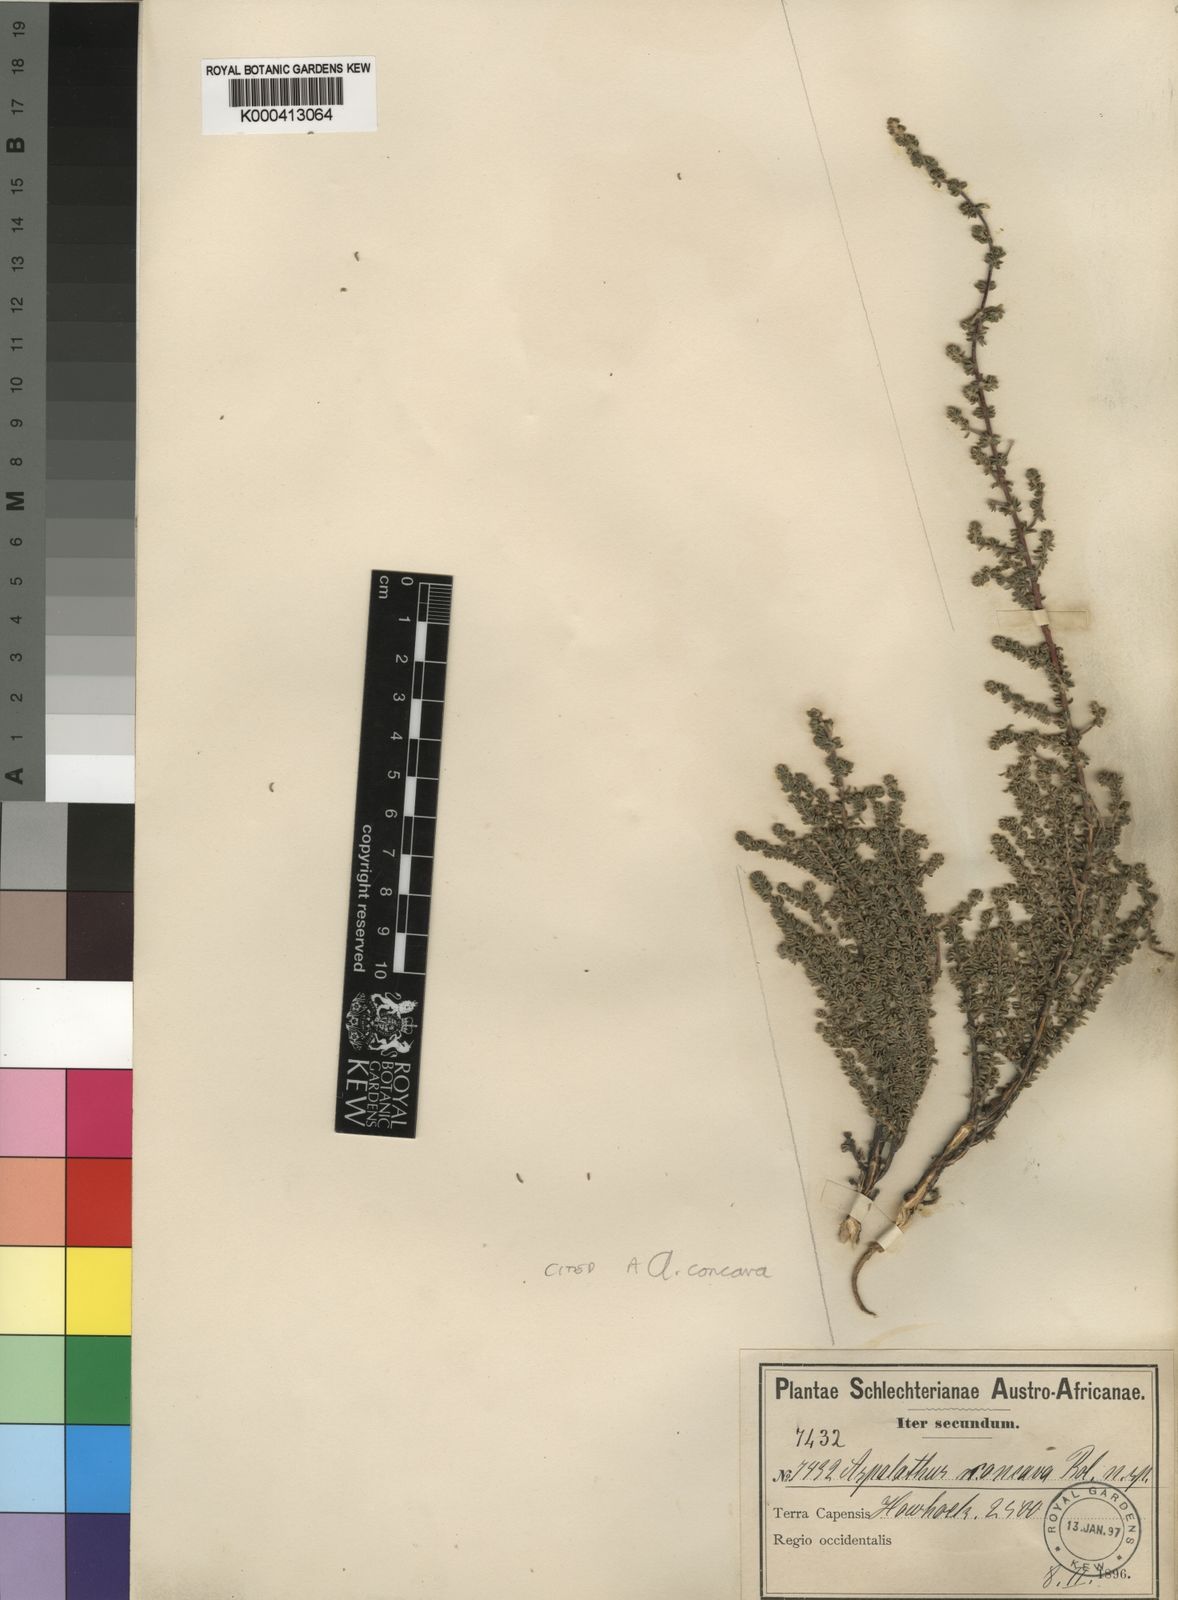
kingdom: Plantae
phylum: Tracheophyta
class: Magnoliopsida
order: Fabales
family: Fabaceae
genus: Aspalathus
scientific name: Aspalathus concava
